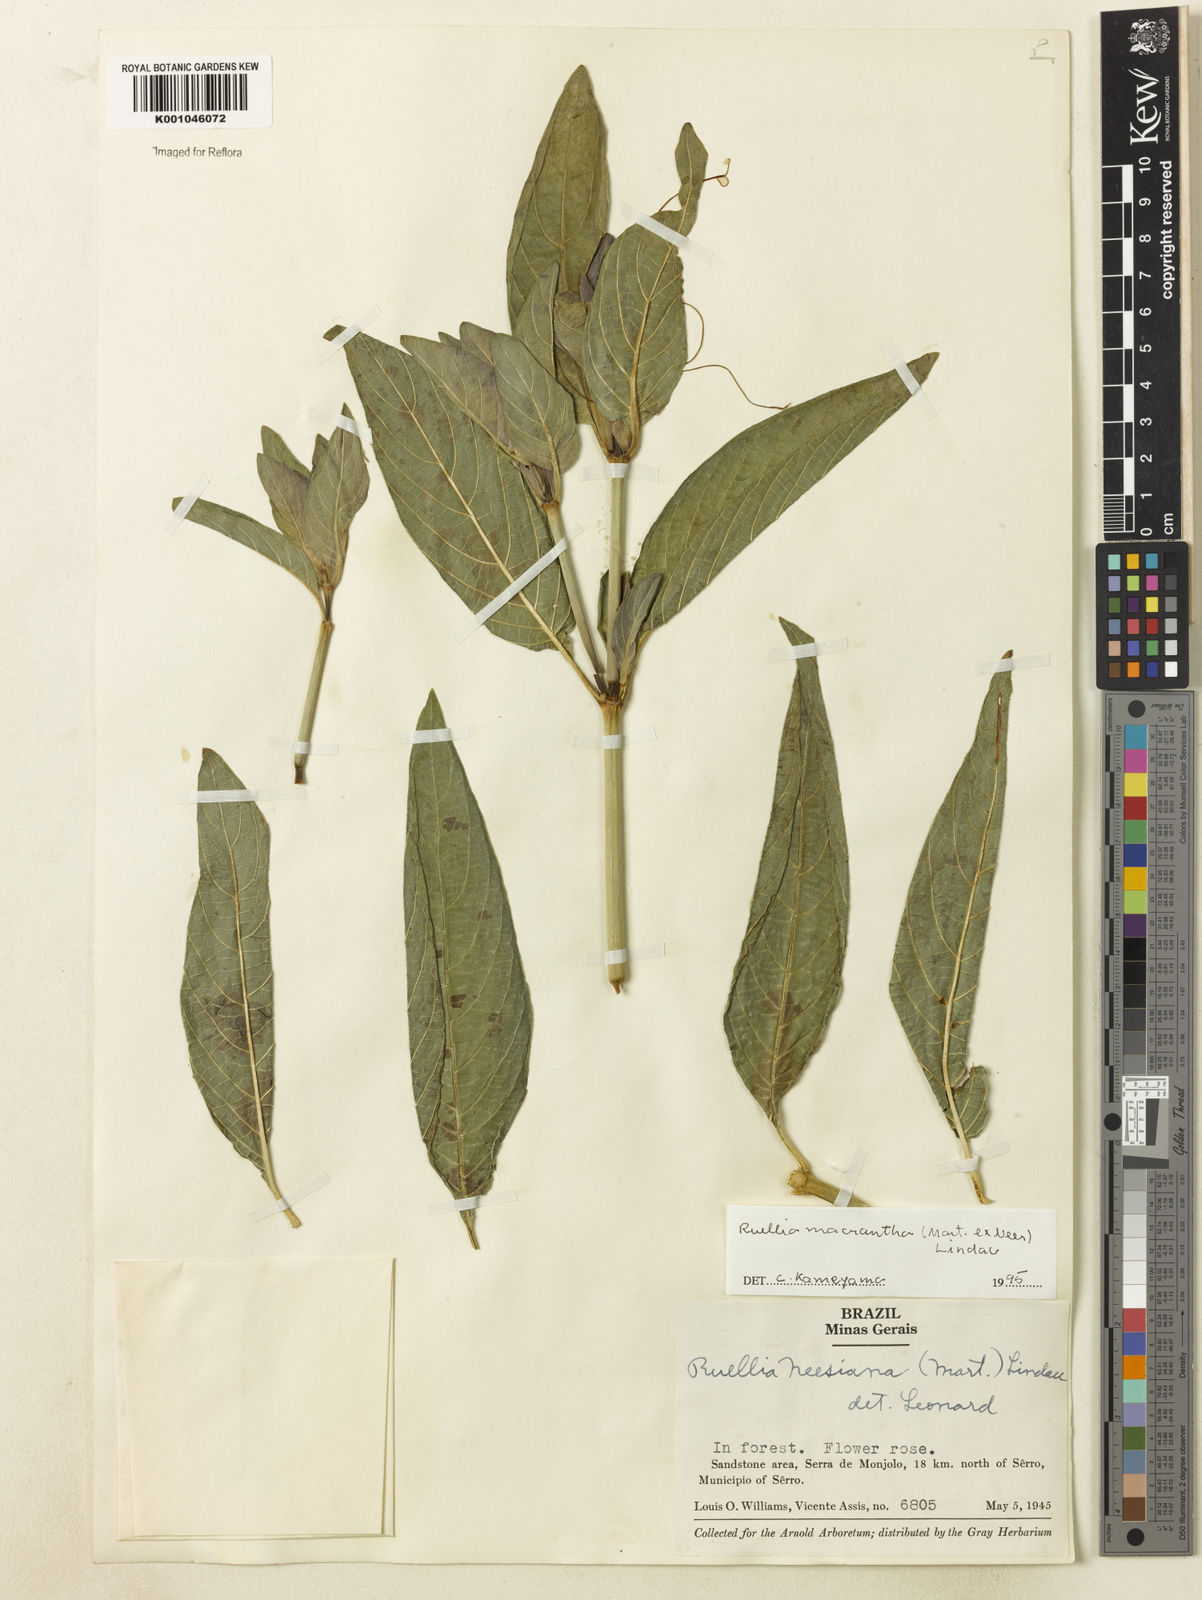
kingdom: Plantae
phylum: Tracheophyta
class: Magnoliopsida
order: Lamiales
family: Acanthaceae
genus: Ruellia
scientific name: Ruellia
